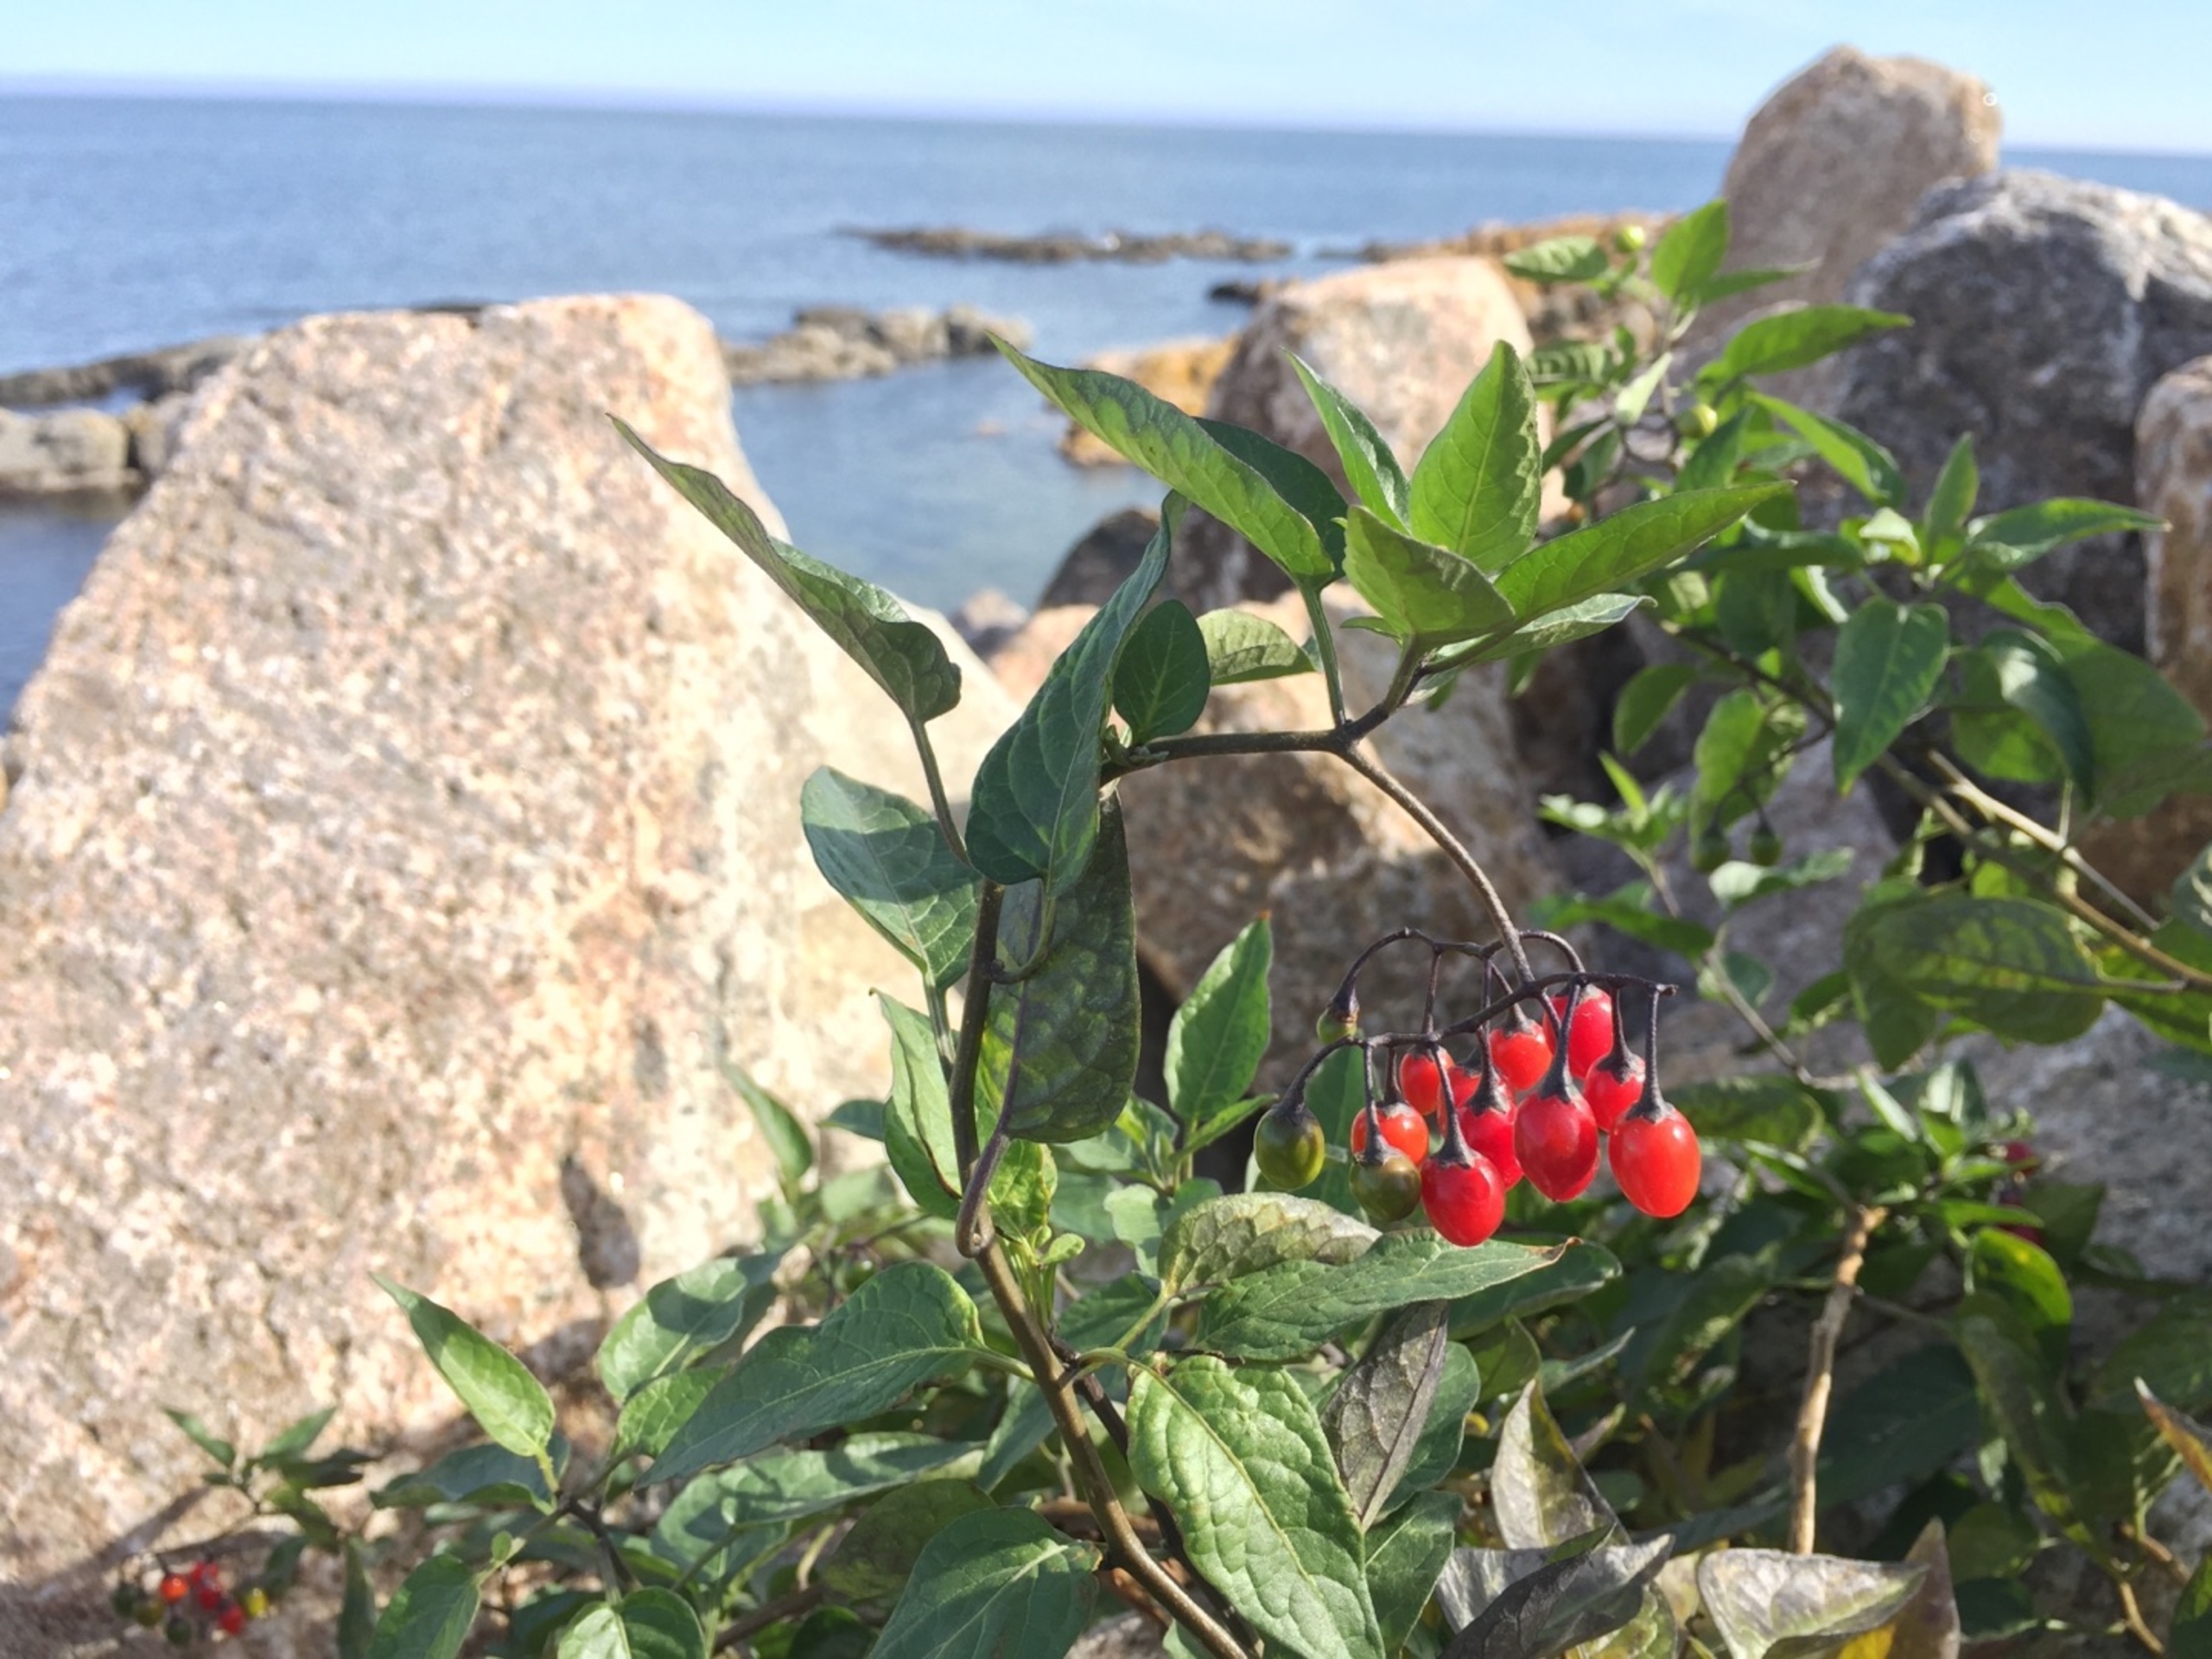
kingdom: Plantae
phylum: Tracheophyta
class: Magnoliopsida
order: Solanales
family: Solanaceae
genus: Solanum
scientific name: Solanum dulcamara
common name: Bittersød natskygge
